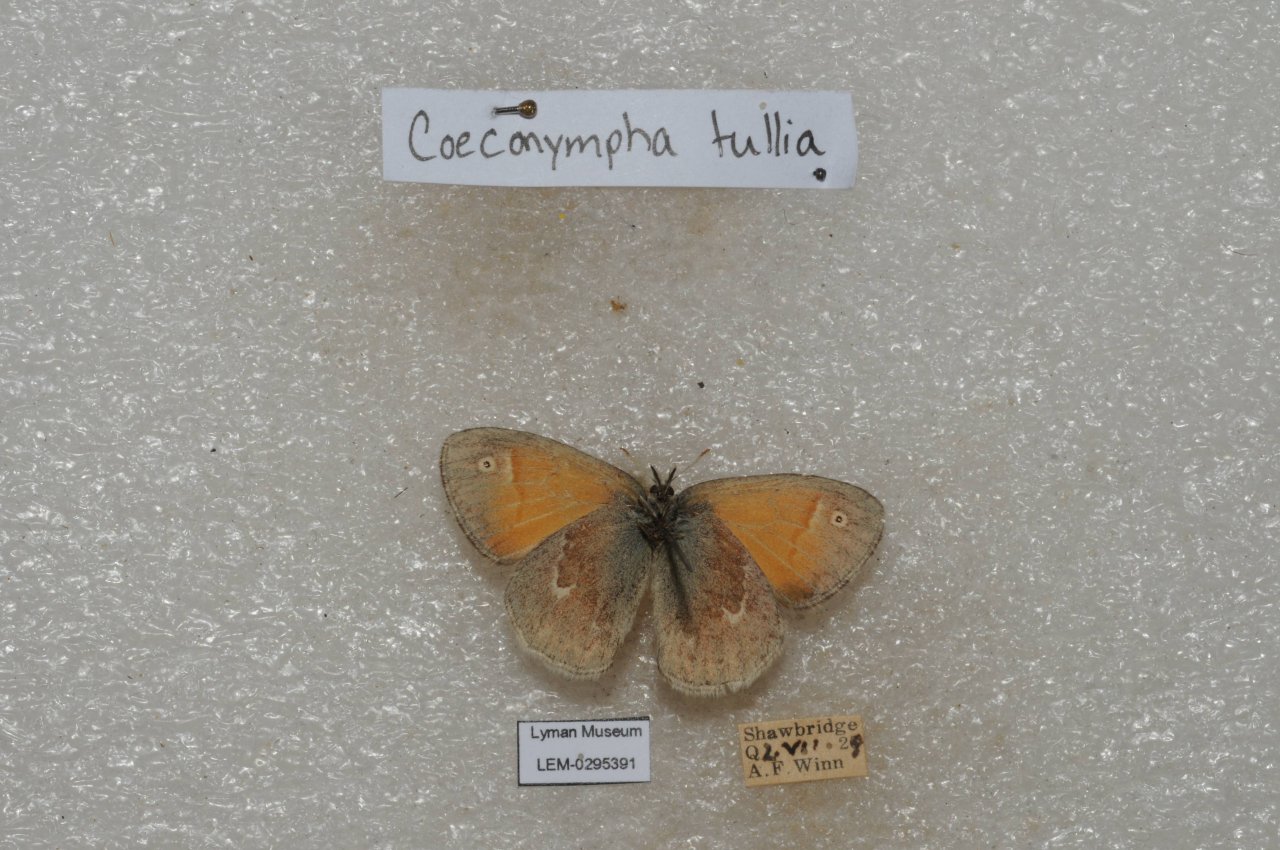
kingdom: Animalia
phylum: Arthropoda
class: Insecta
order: Lepidoptera
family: Nymphalidae
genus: Coenonympha
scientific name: Coenonympha tullia
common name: Large Heath
